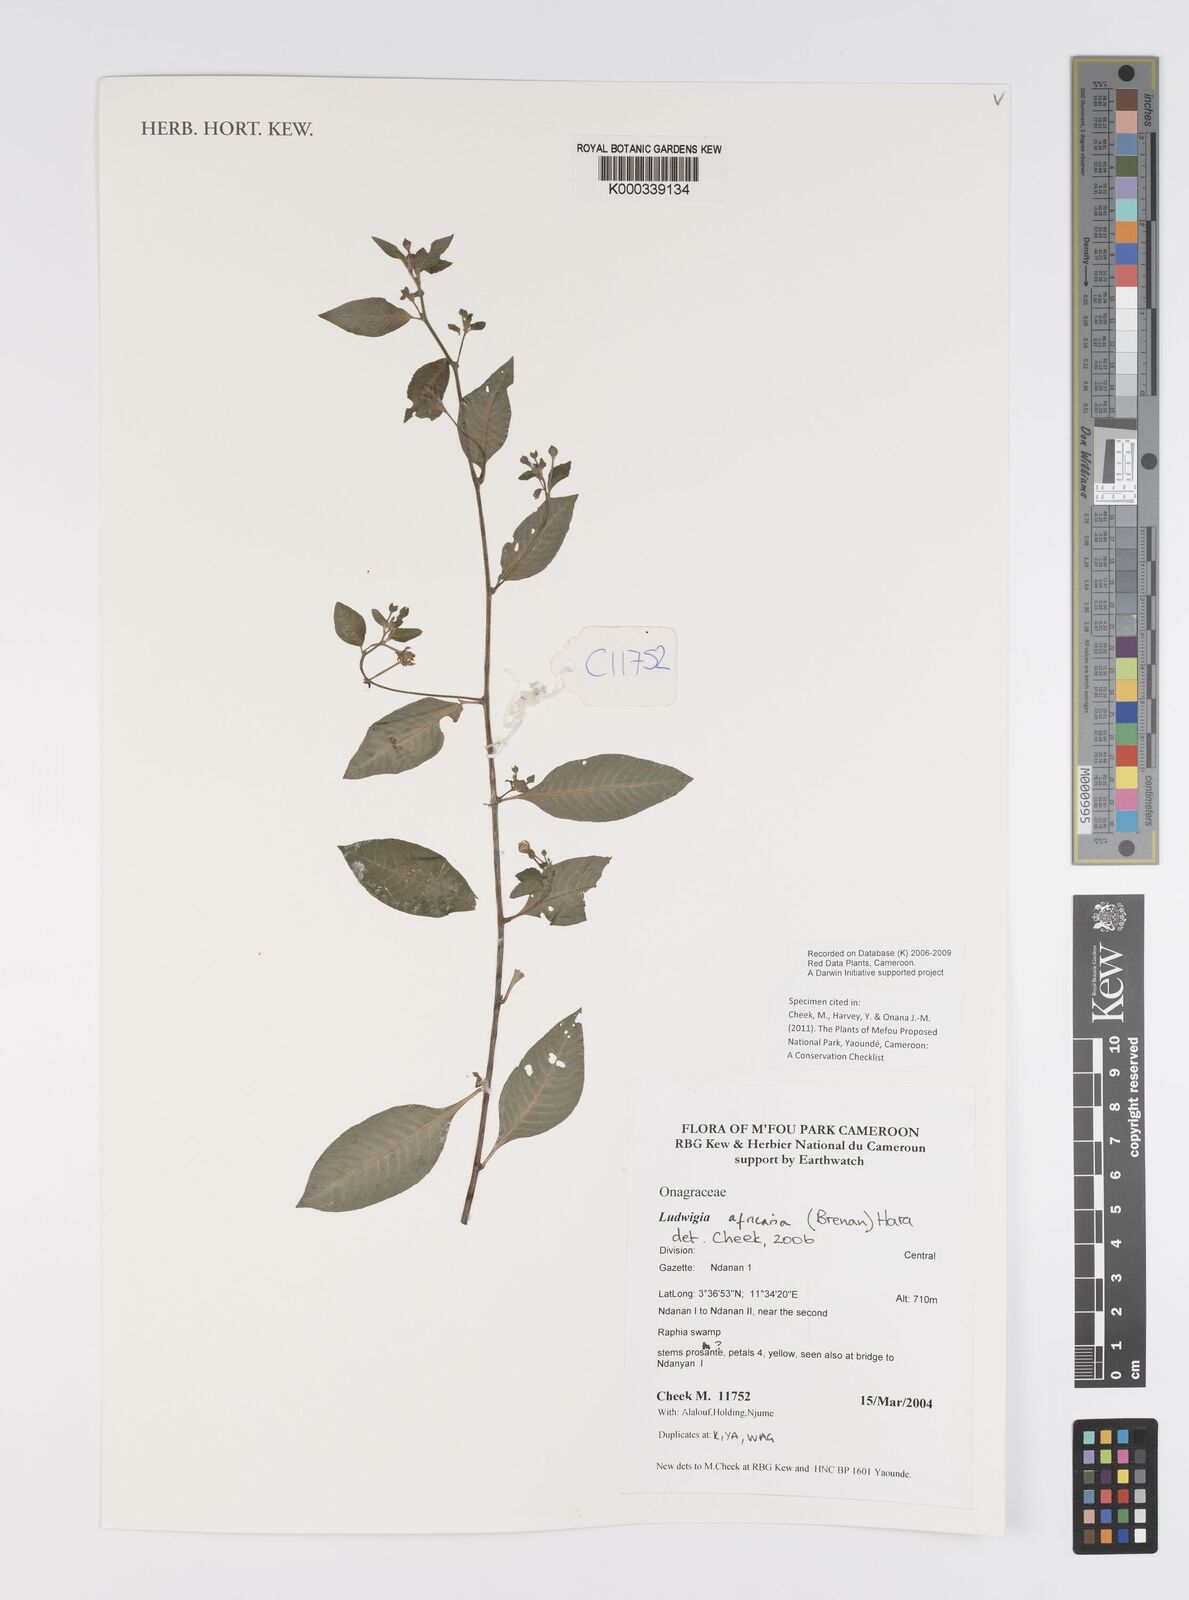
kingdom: Plantae
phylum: Tracheophyta
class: Magnoliopsida
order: Myrtales
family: Onagraceae
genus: Ludwigia
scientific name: Ludwigia africana
